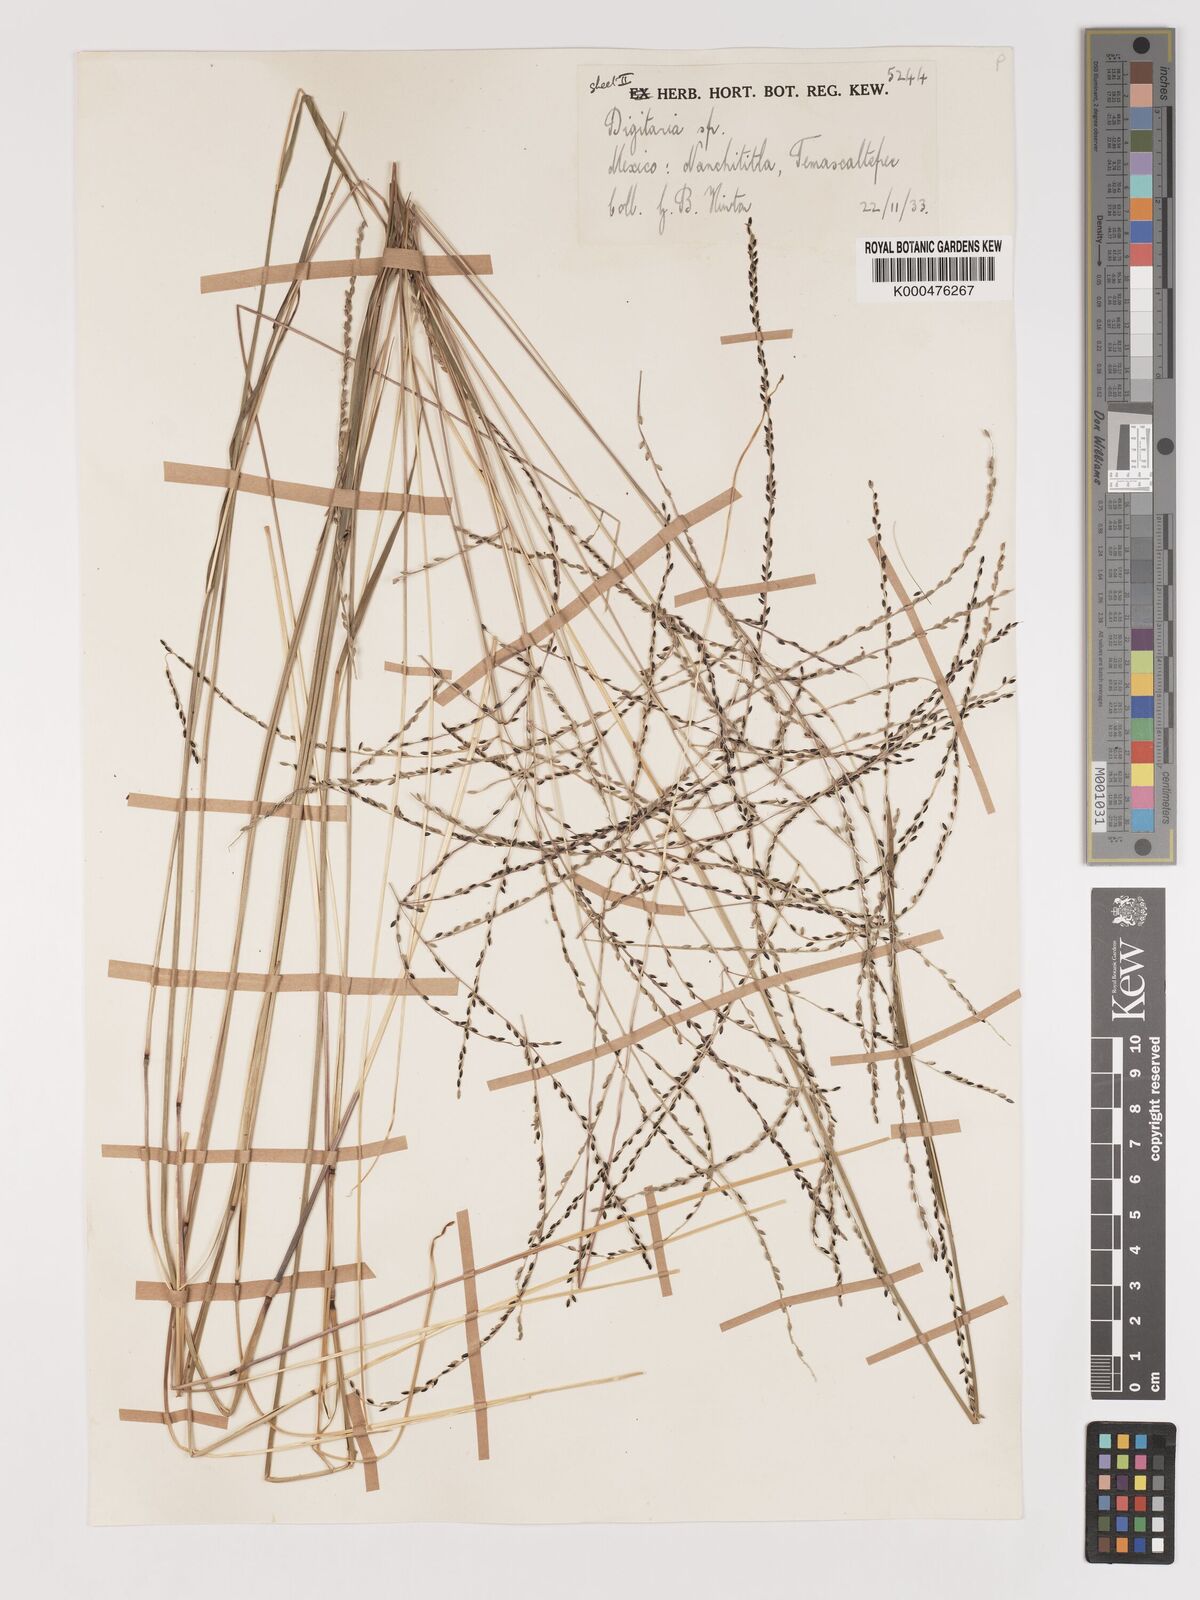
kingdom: Plantae
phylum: Tracheophyta
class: Liliopsida
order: Poales
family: Poaceae
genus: Digitaria
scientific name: Digitaria curtigluma
